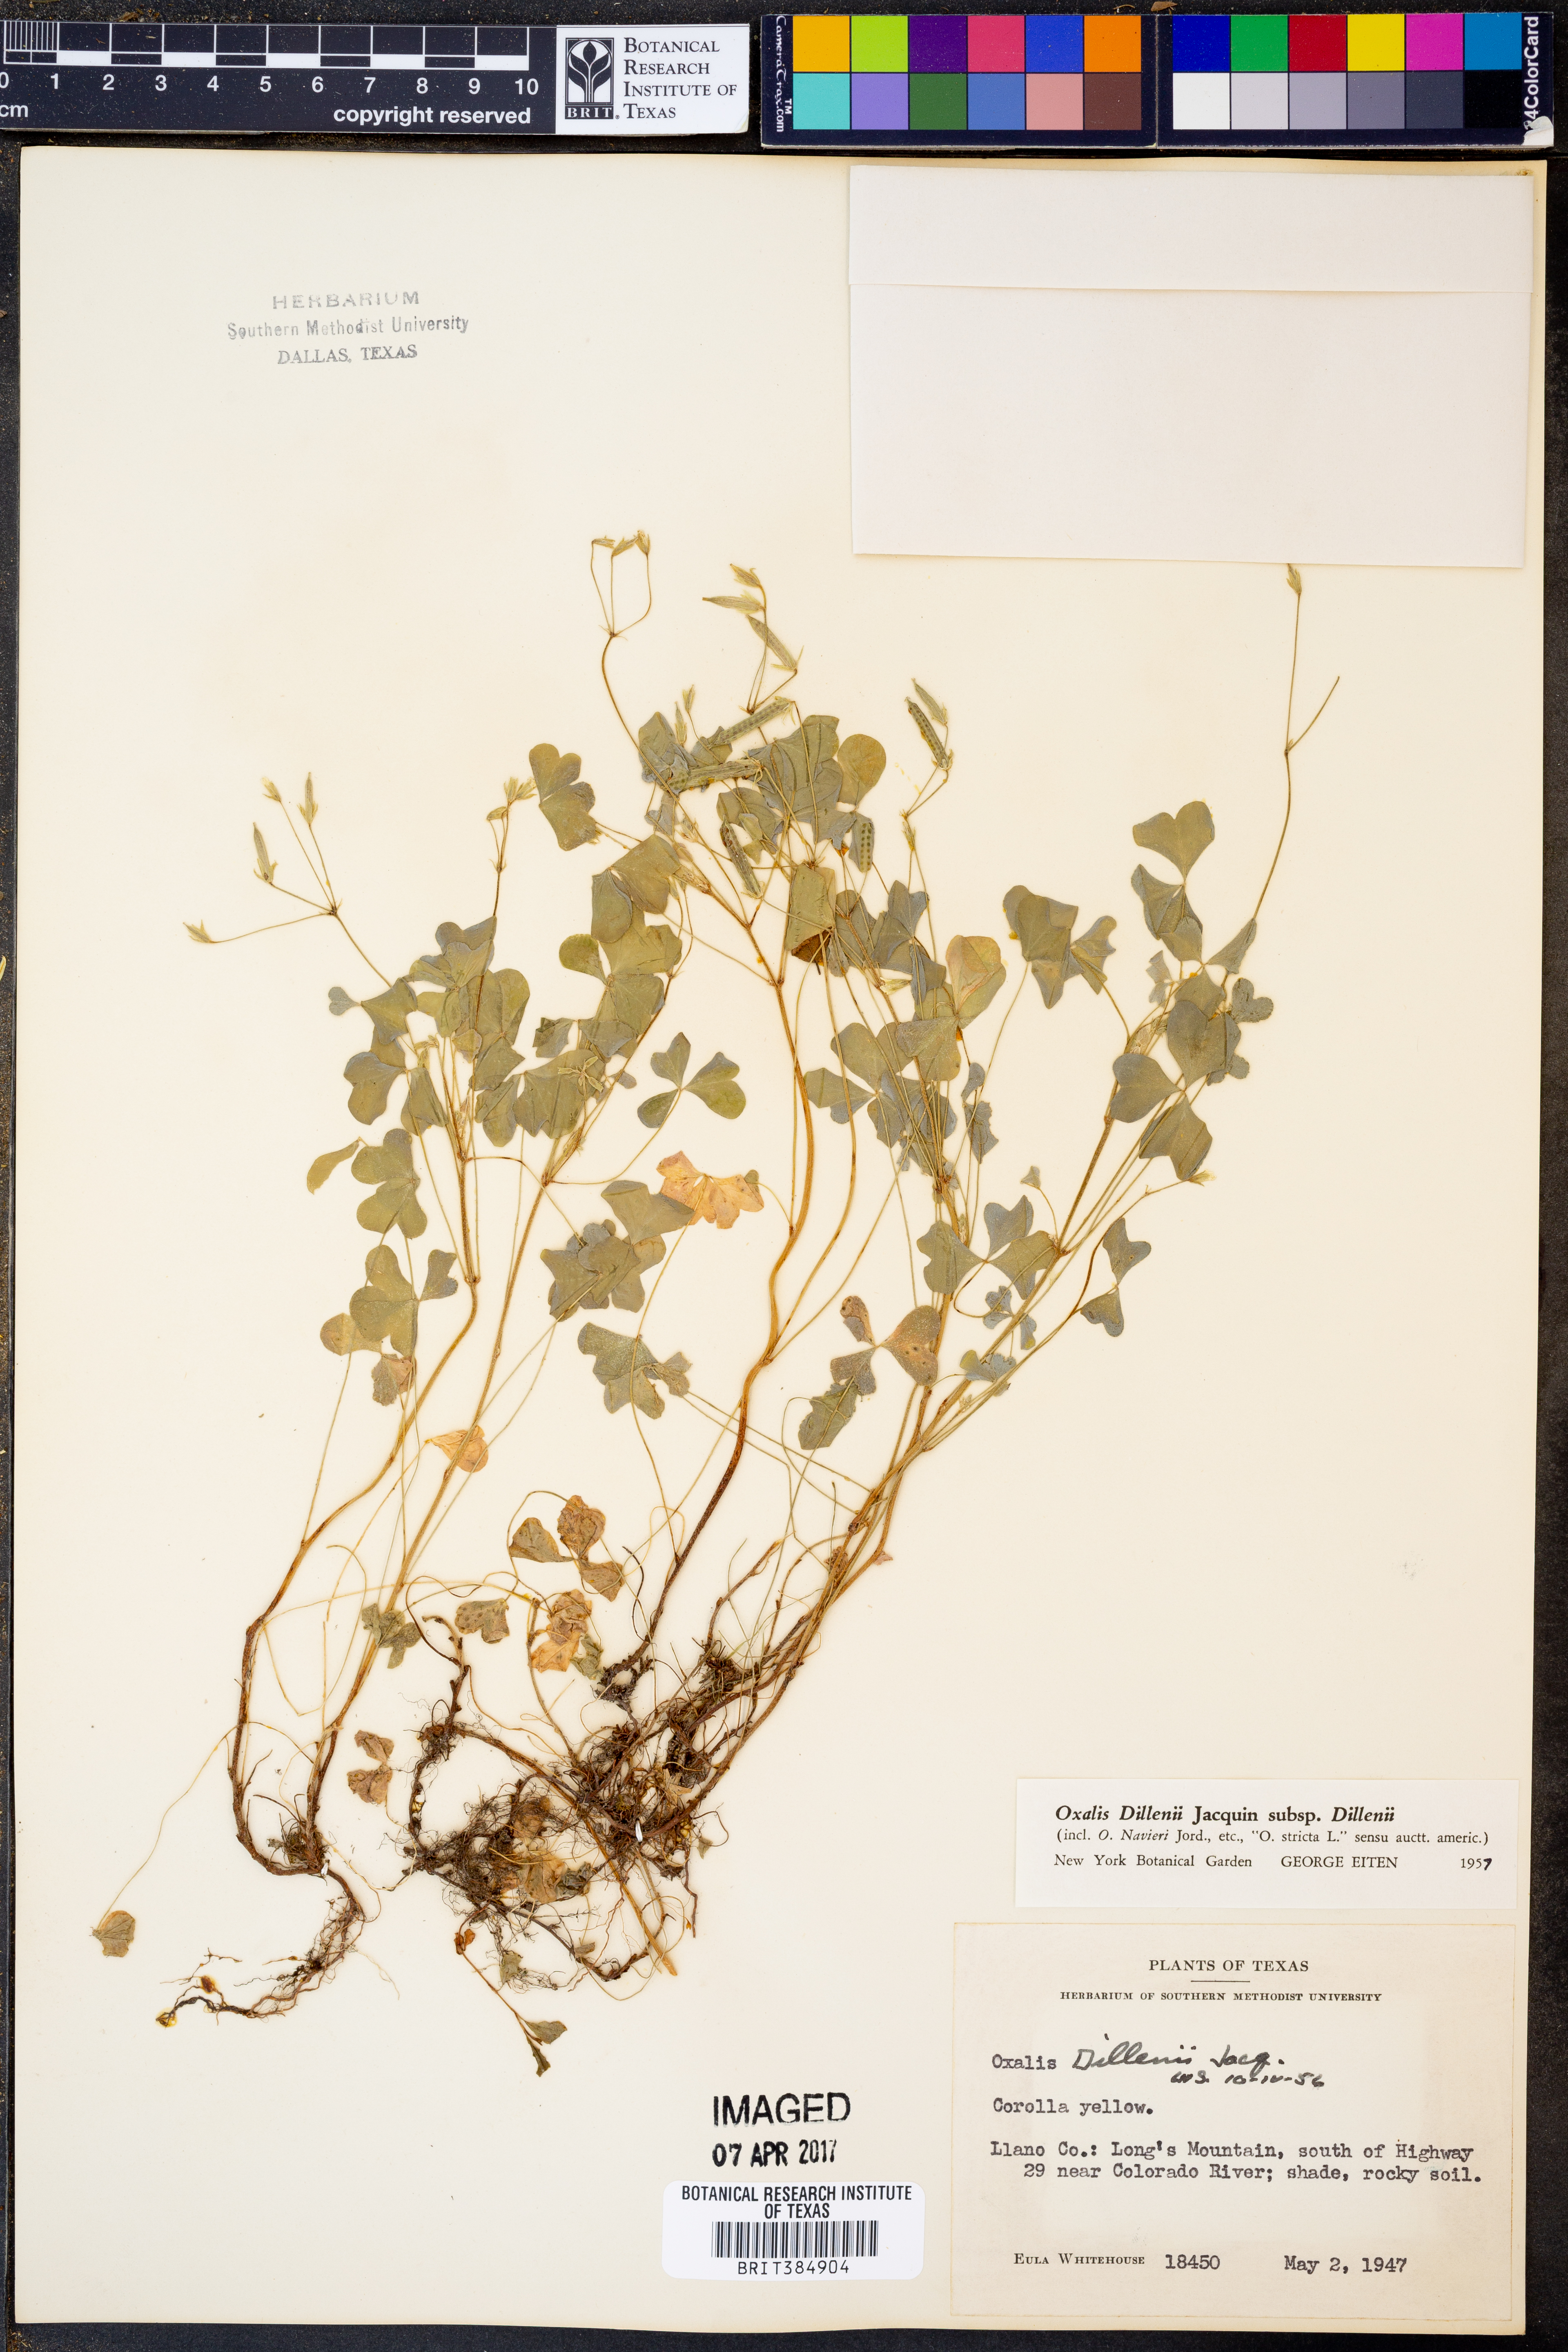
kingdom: Plantae
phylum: Tracheophyta
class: Magnoliopsida
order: Oxalidales
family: Oxalidaceae
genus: Oxalis
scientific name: Oxalis dillenii
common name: Sussex yellow-sorrel
